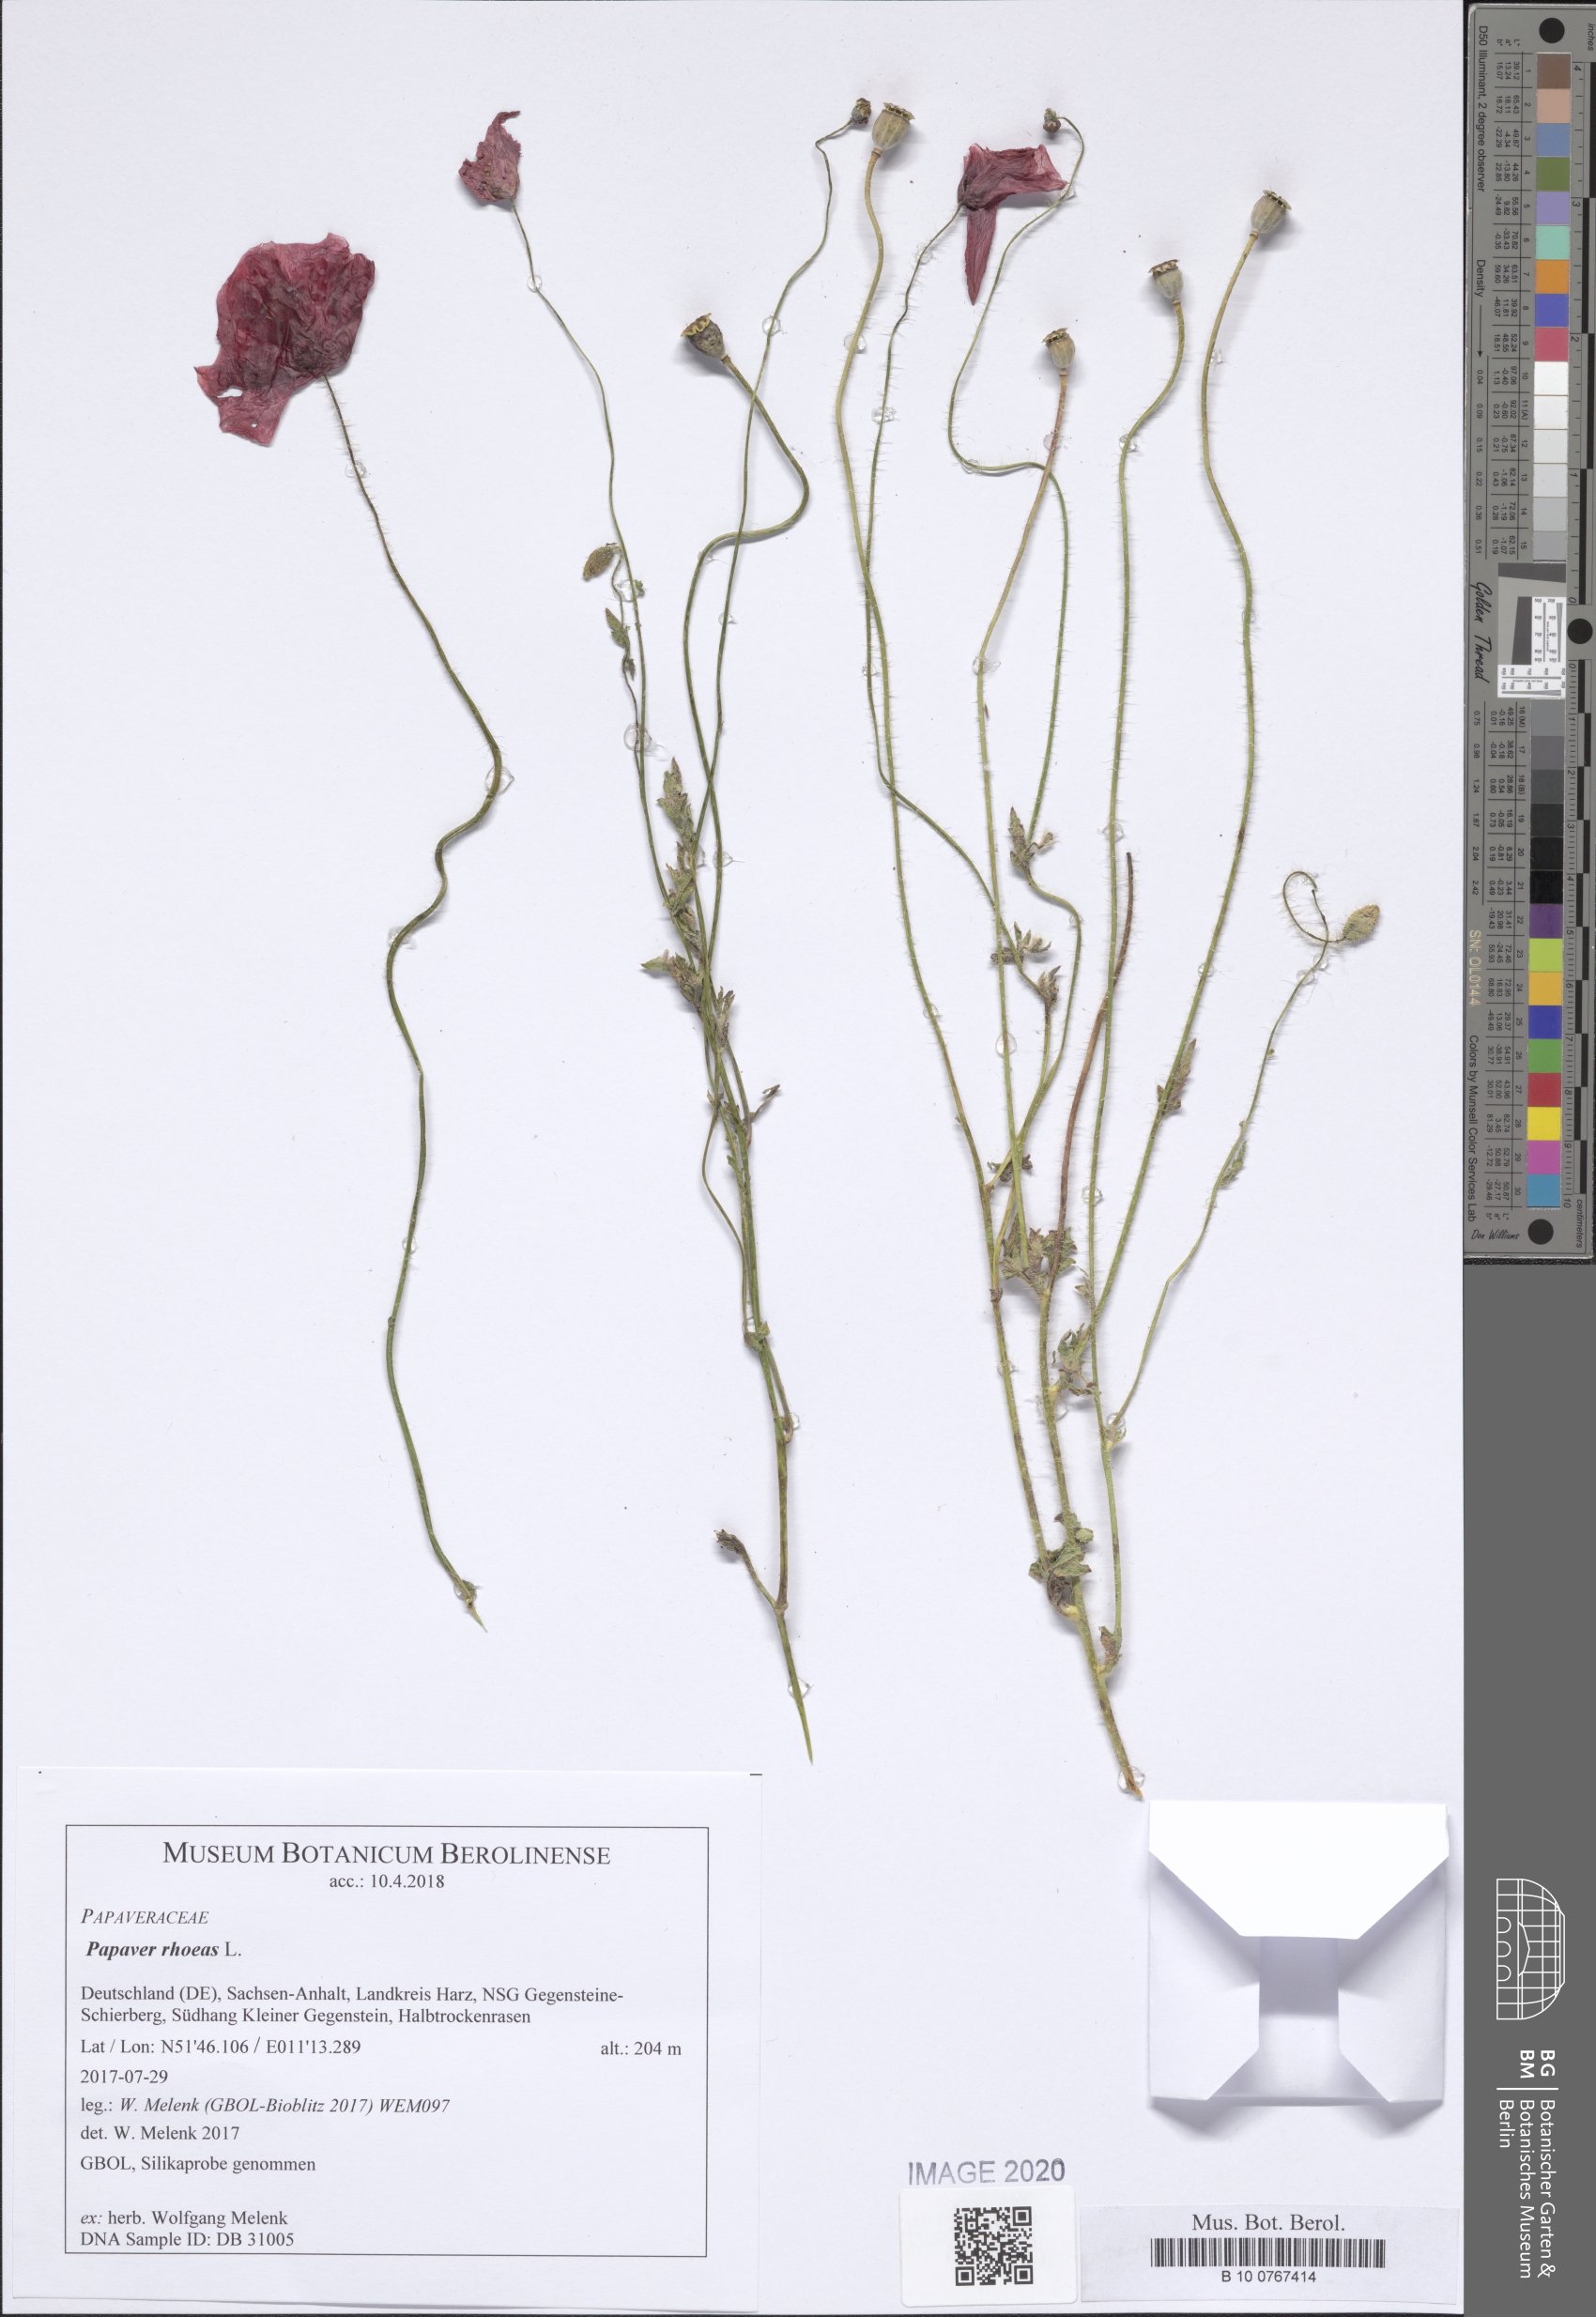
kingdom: Plantae
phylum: Tracheophyta
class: Magnoliopsida
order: Ranunculales
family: Papaveraceae
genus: Papaver
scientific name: Papaver rhoeas
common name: Corn poppy
